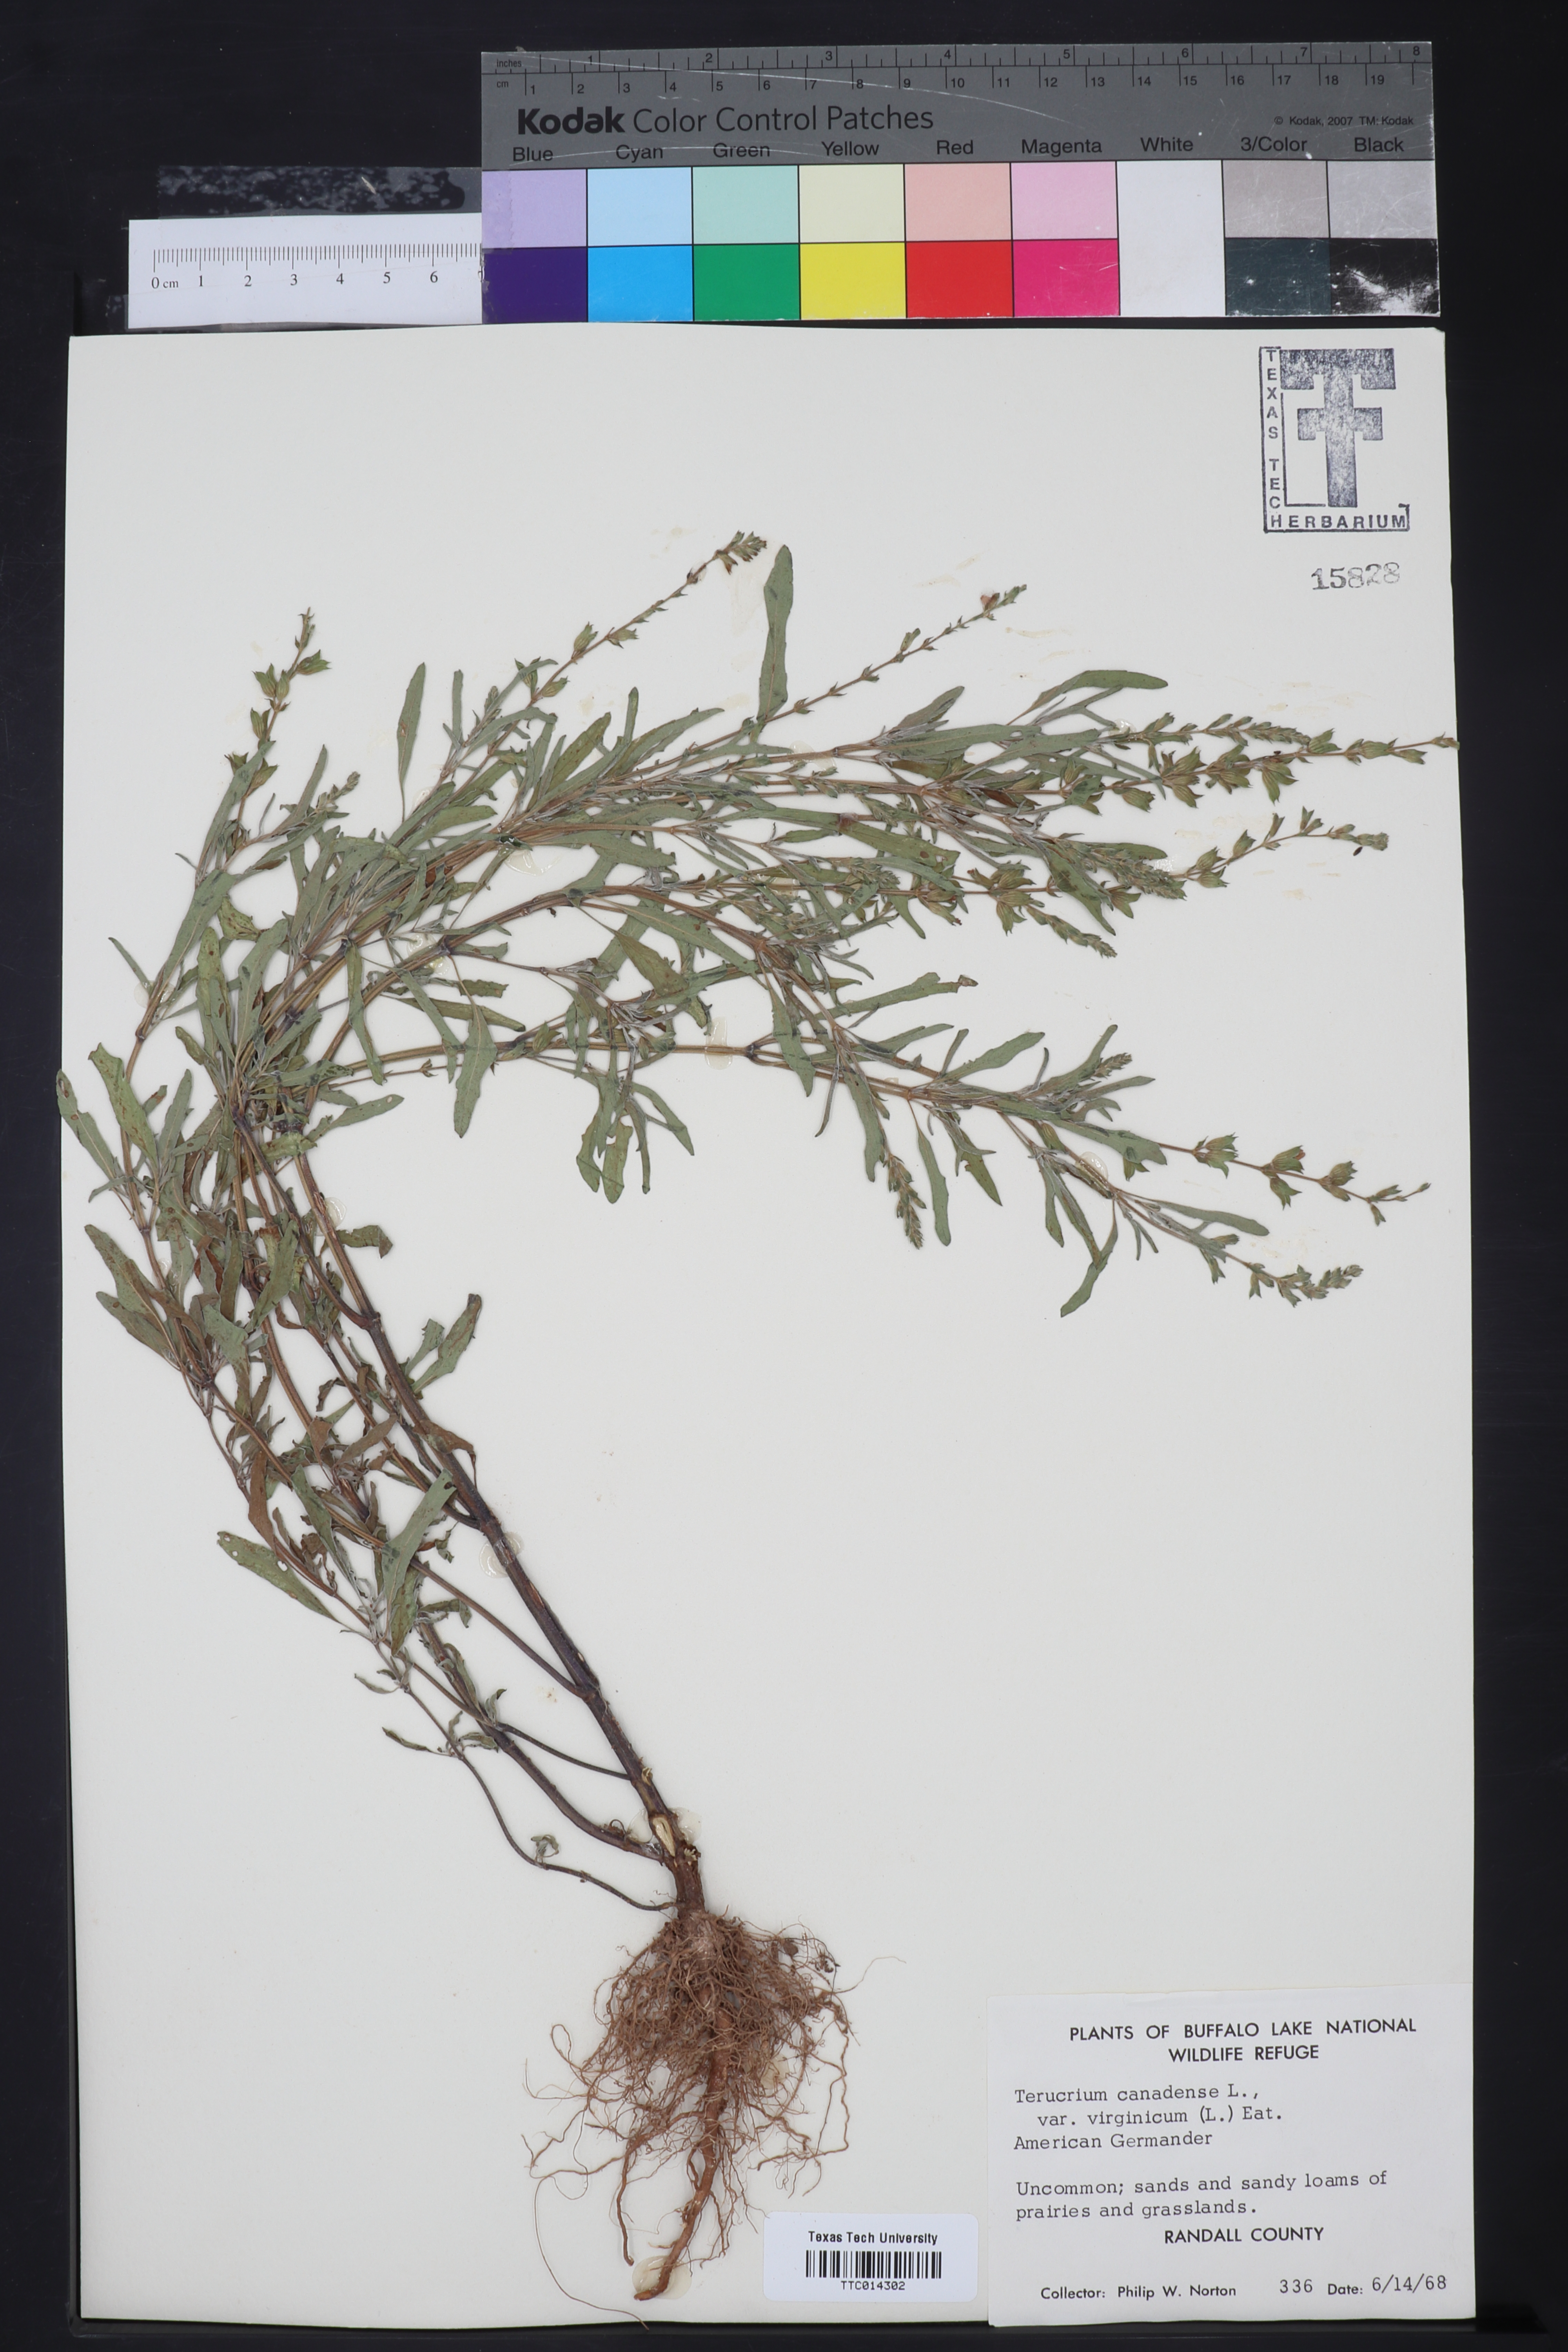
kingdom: Plantae
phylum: Tracheophyta
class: Magnoliopsida
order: Lamiales
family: Lamiaceae
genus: Teucrium
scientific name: Teucrium canadense
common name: American germander
